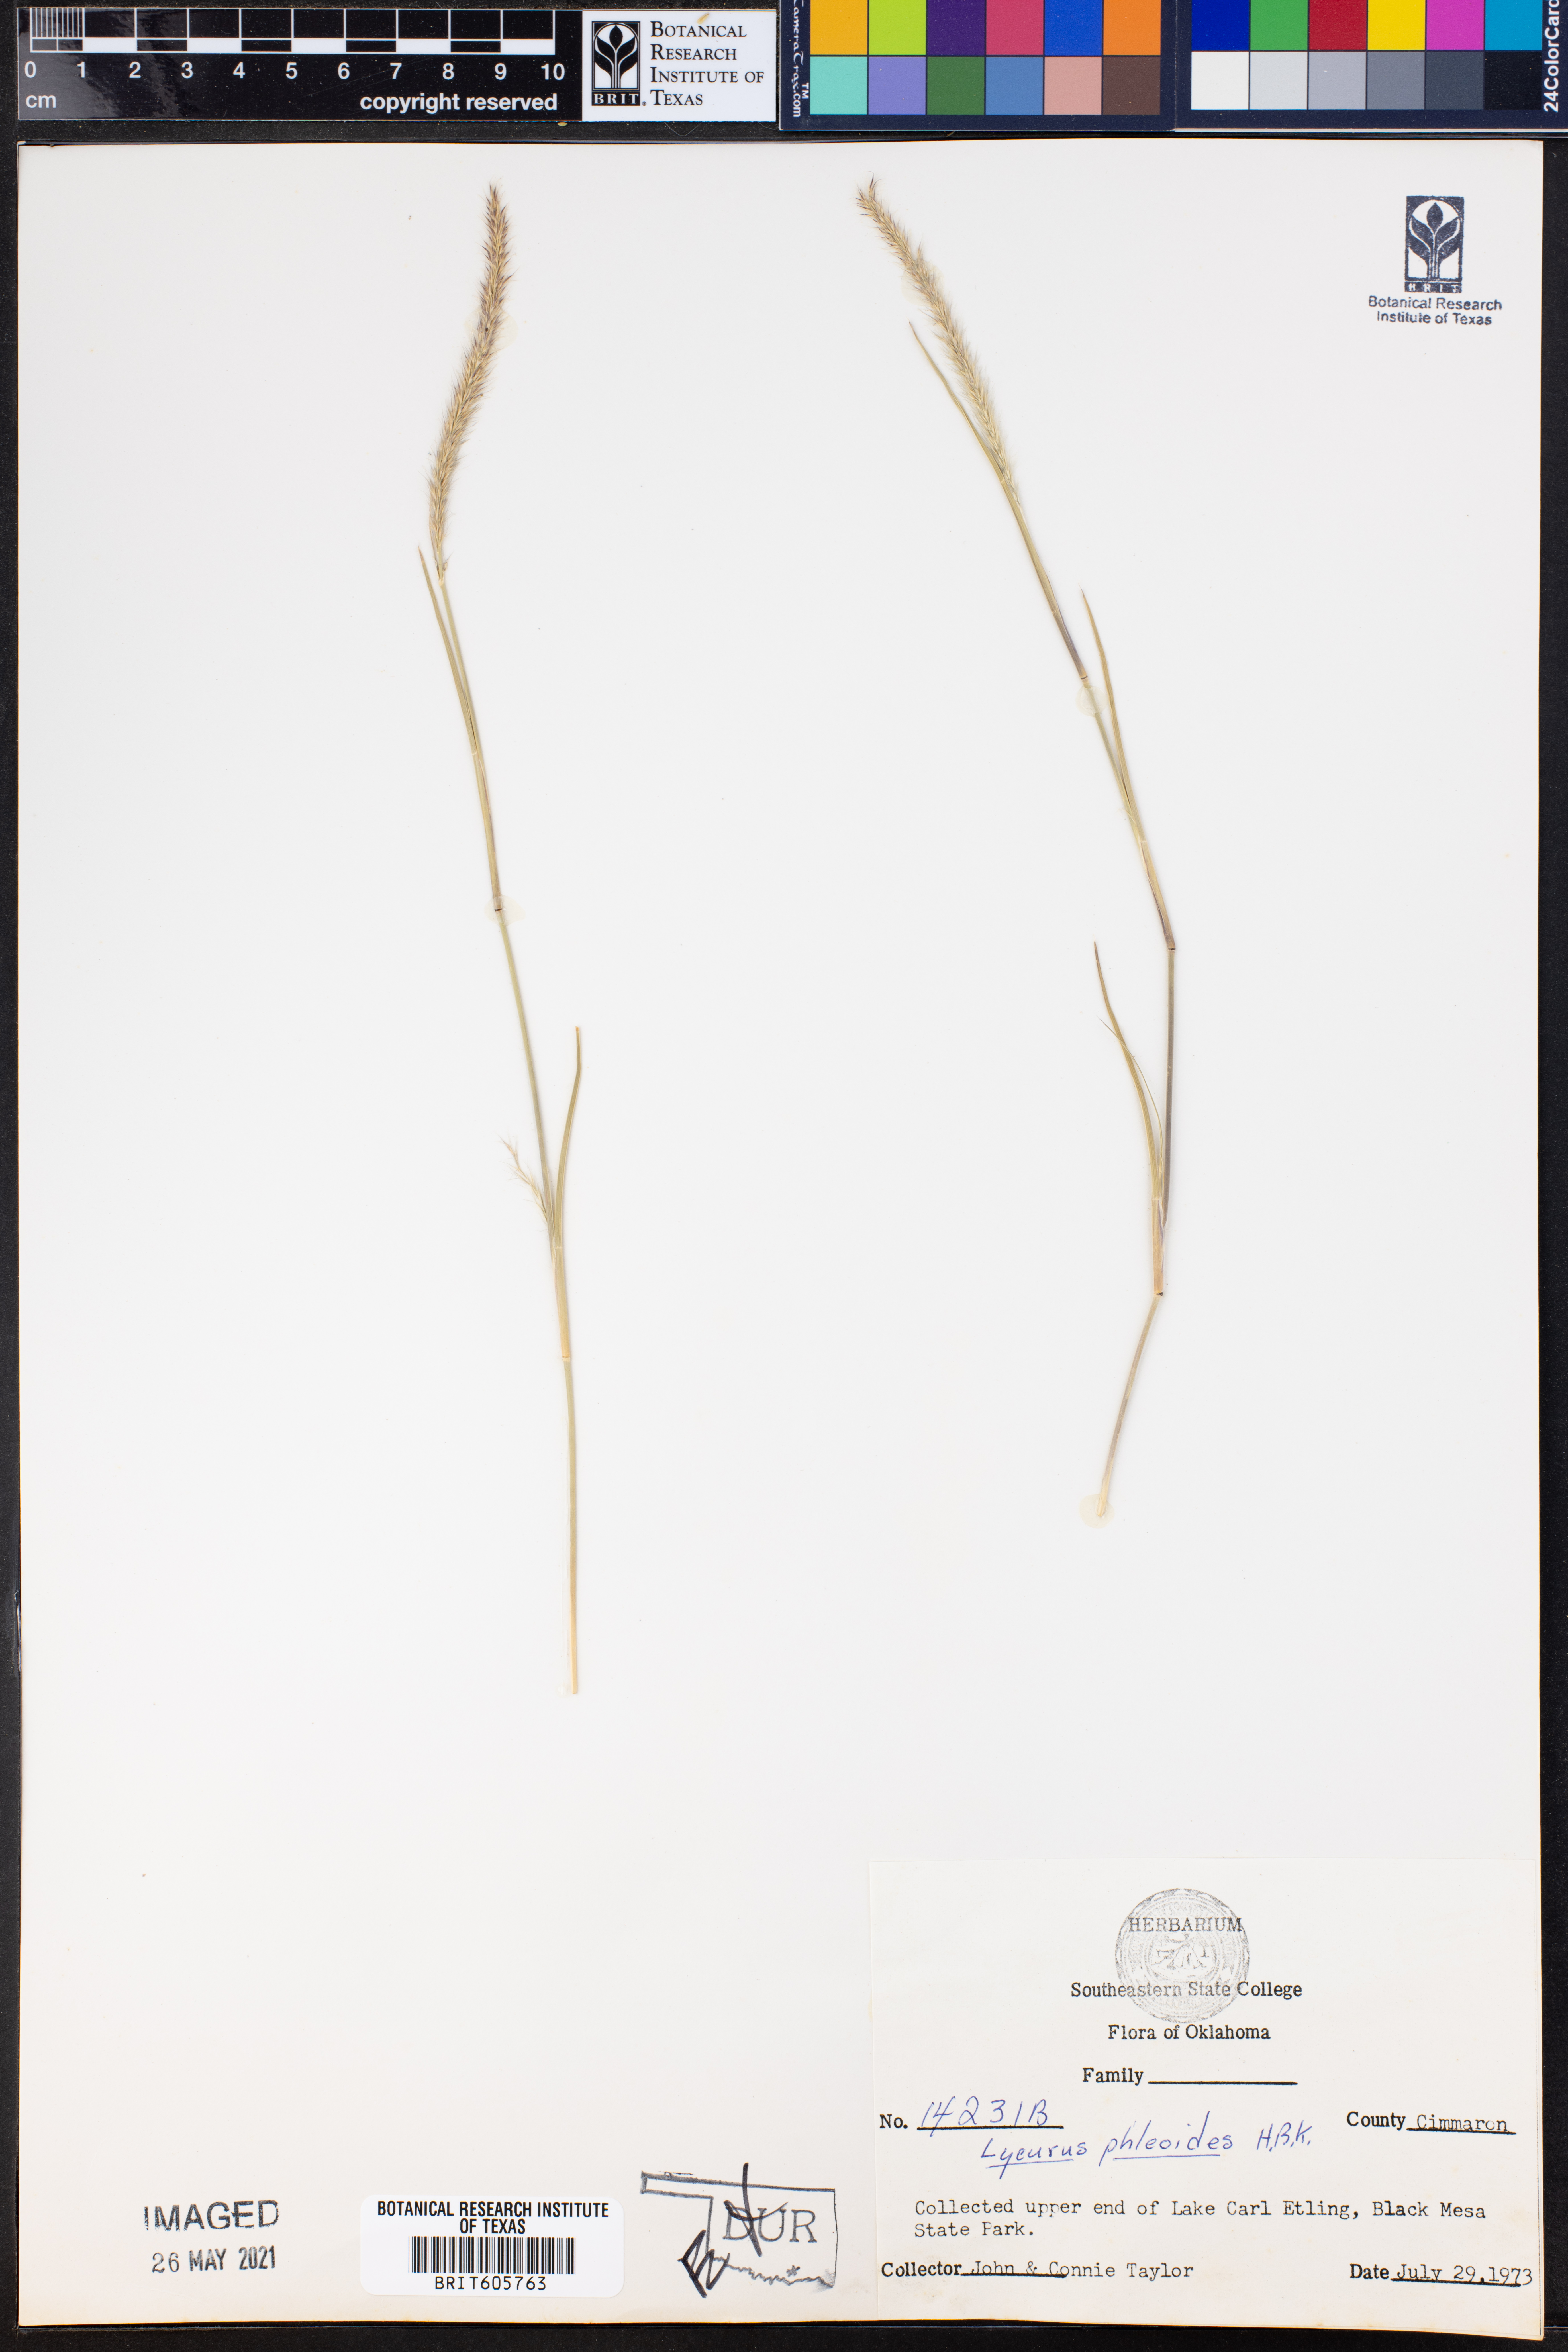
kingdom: Plantae
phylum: Tracheophyta
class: Liliopsida
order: Poales
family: Poaceae
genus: Muhlenbergia
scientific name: Muhlenbergia phleoides
